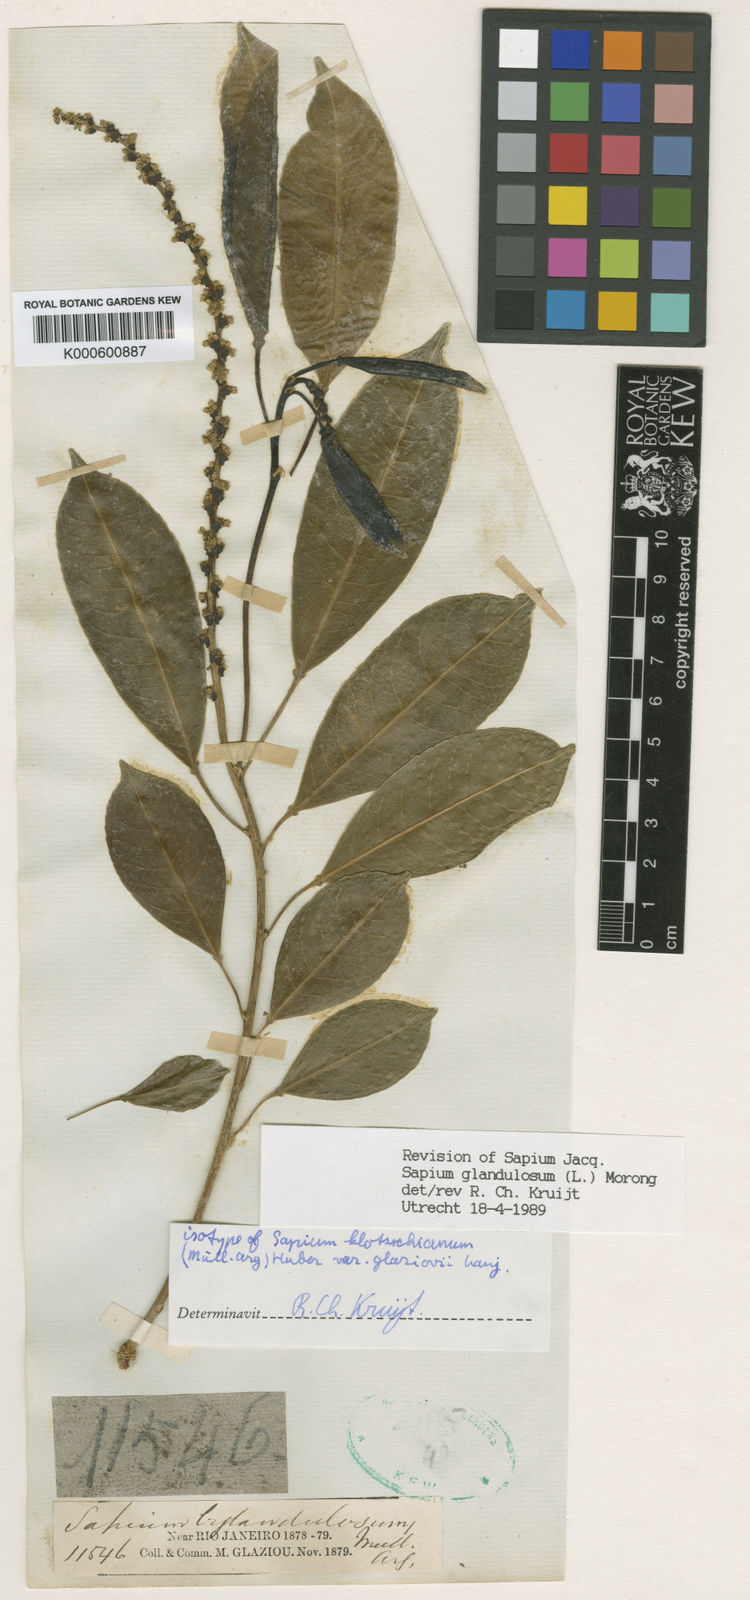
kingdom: Plantae
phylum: Tracheophyta
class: Magnoliopsida
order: Malpighiales
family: Euphorbiaceae
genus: Sapium
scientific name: Sapium glandulosum
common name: Milktree
